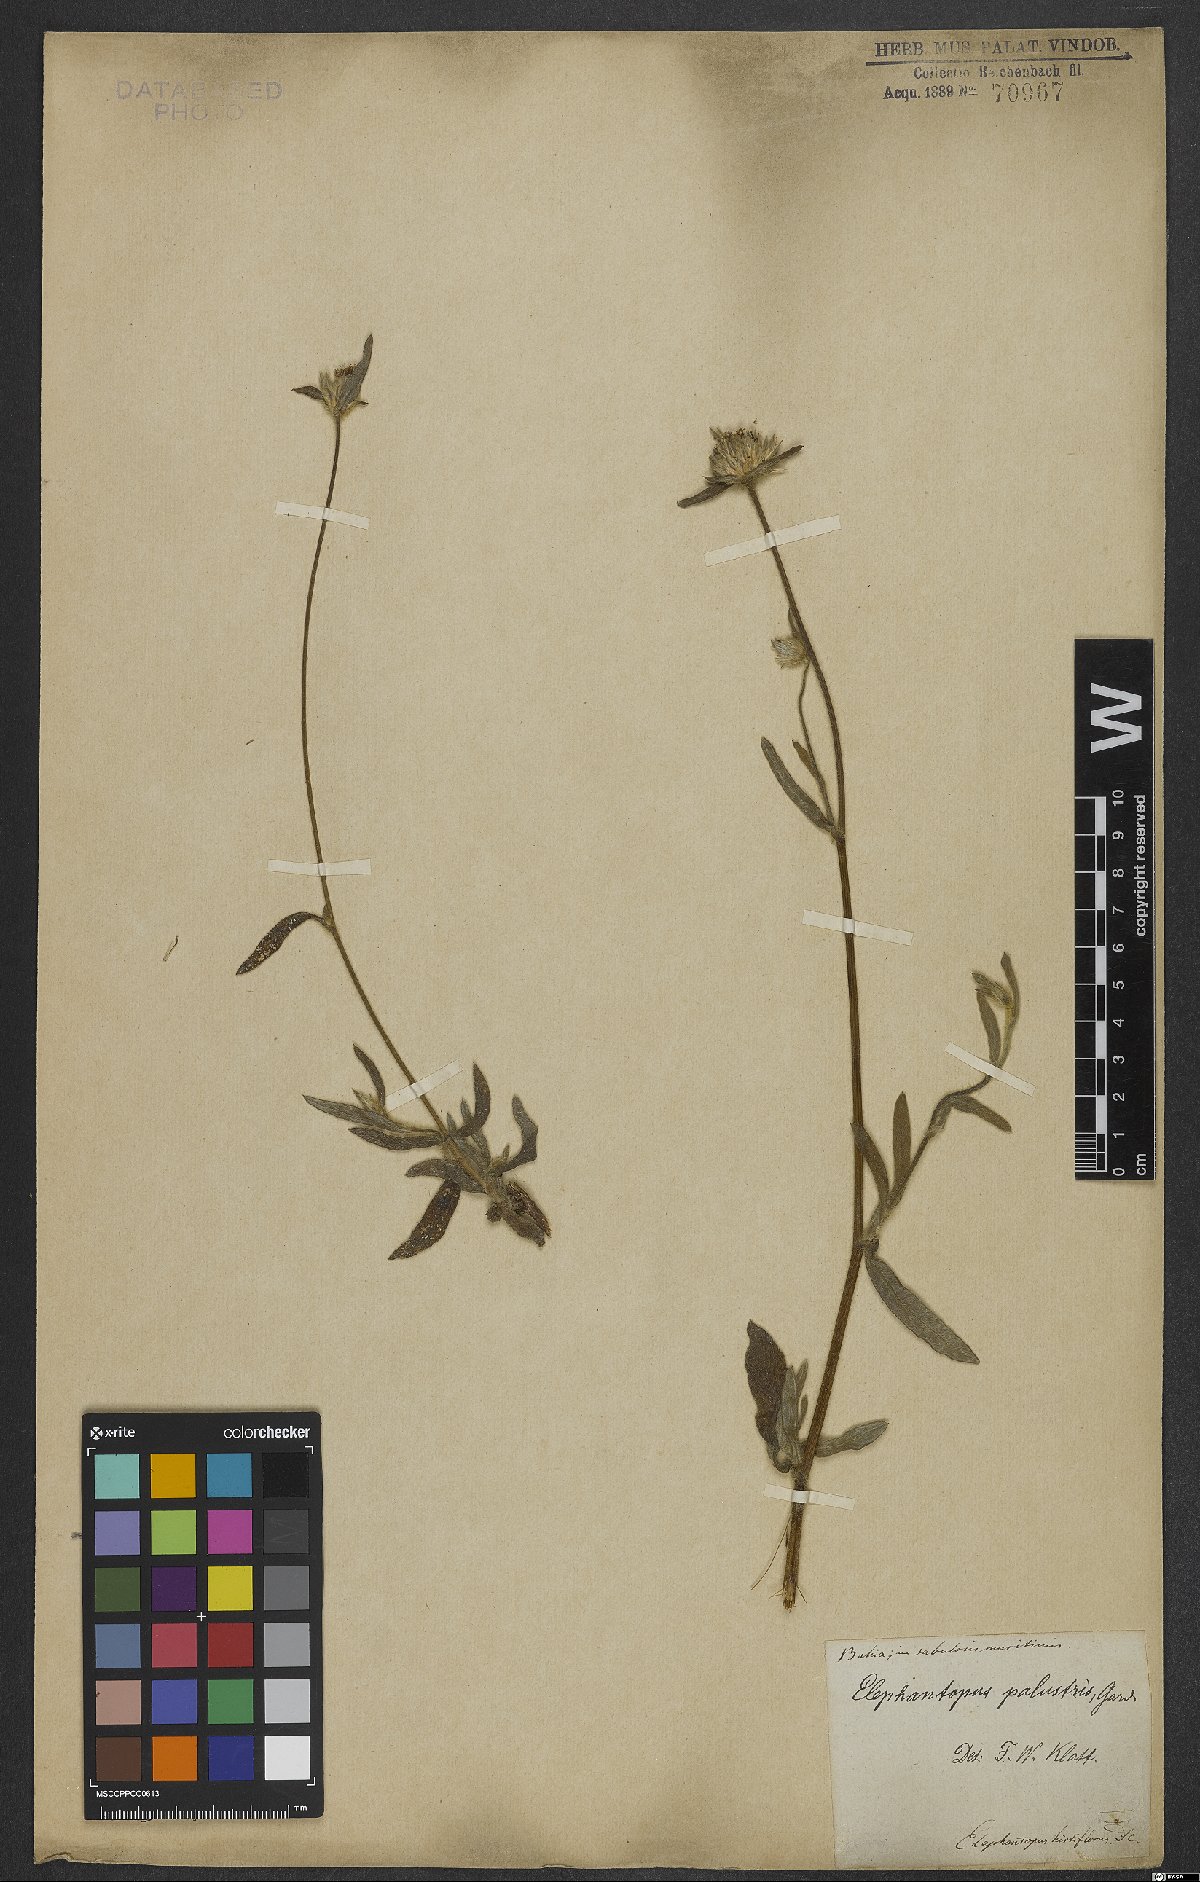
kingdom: Plantae
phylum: Tracheophyta
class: Magnoliopsida
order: Asterales
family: Asteraceae
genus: Elephantopus
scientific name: Elephantopus palustris
